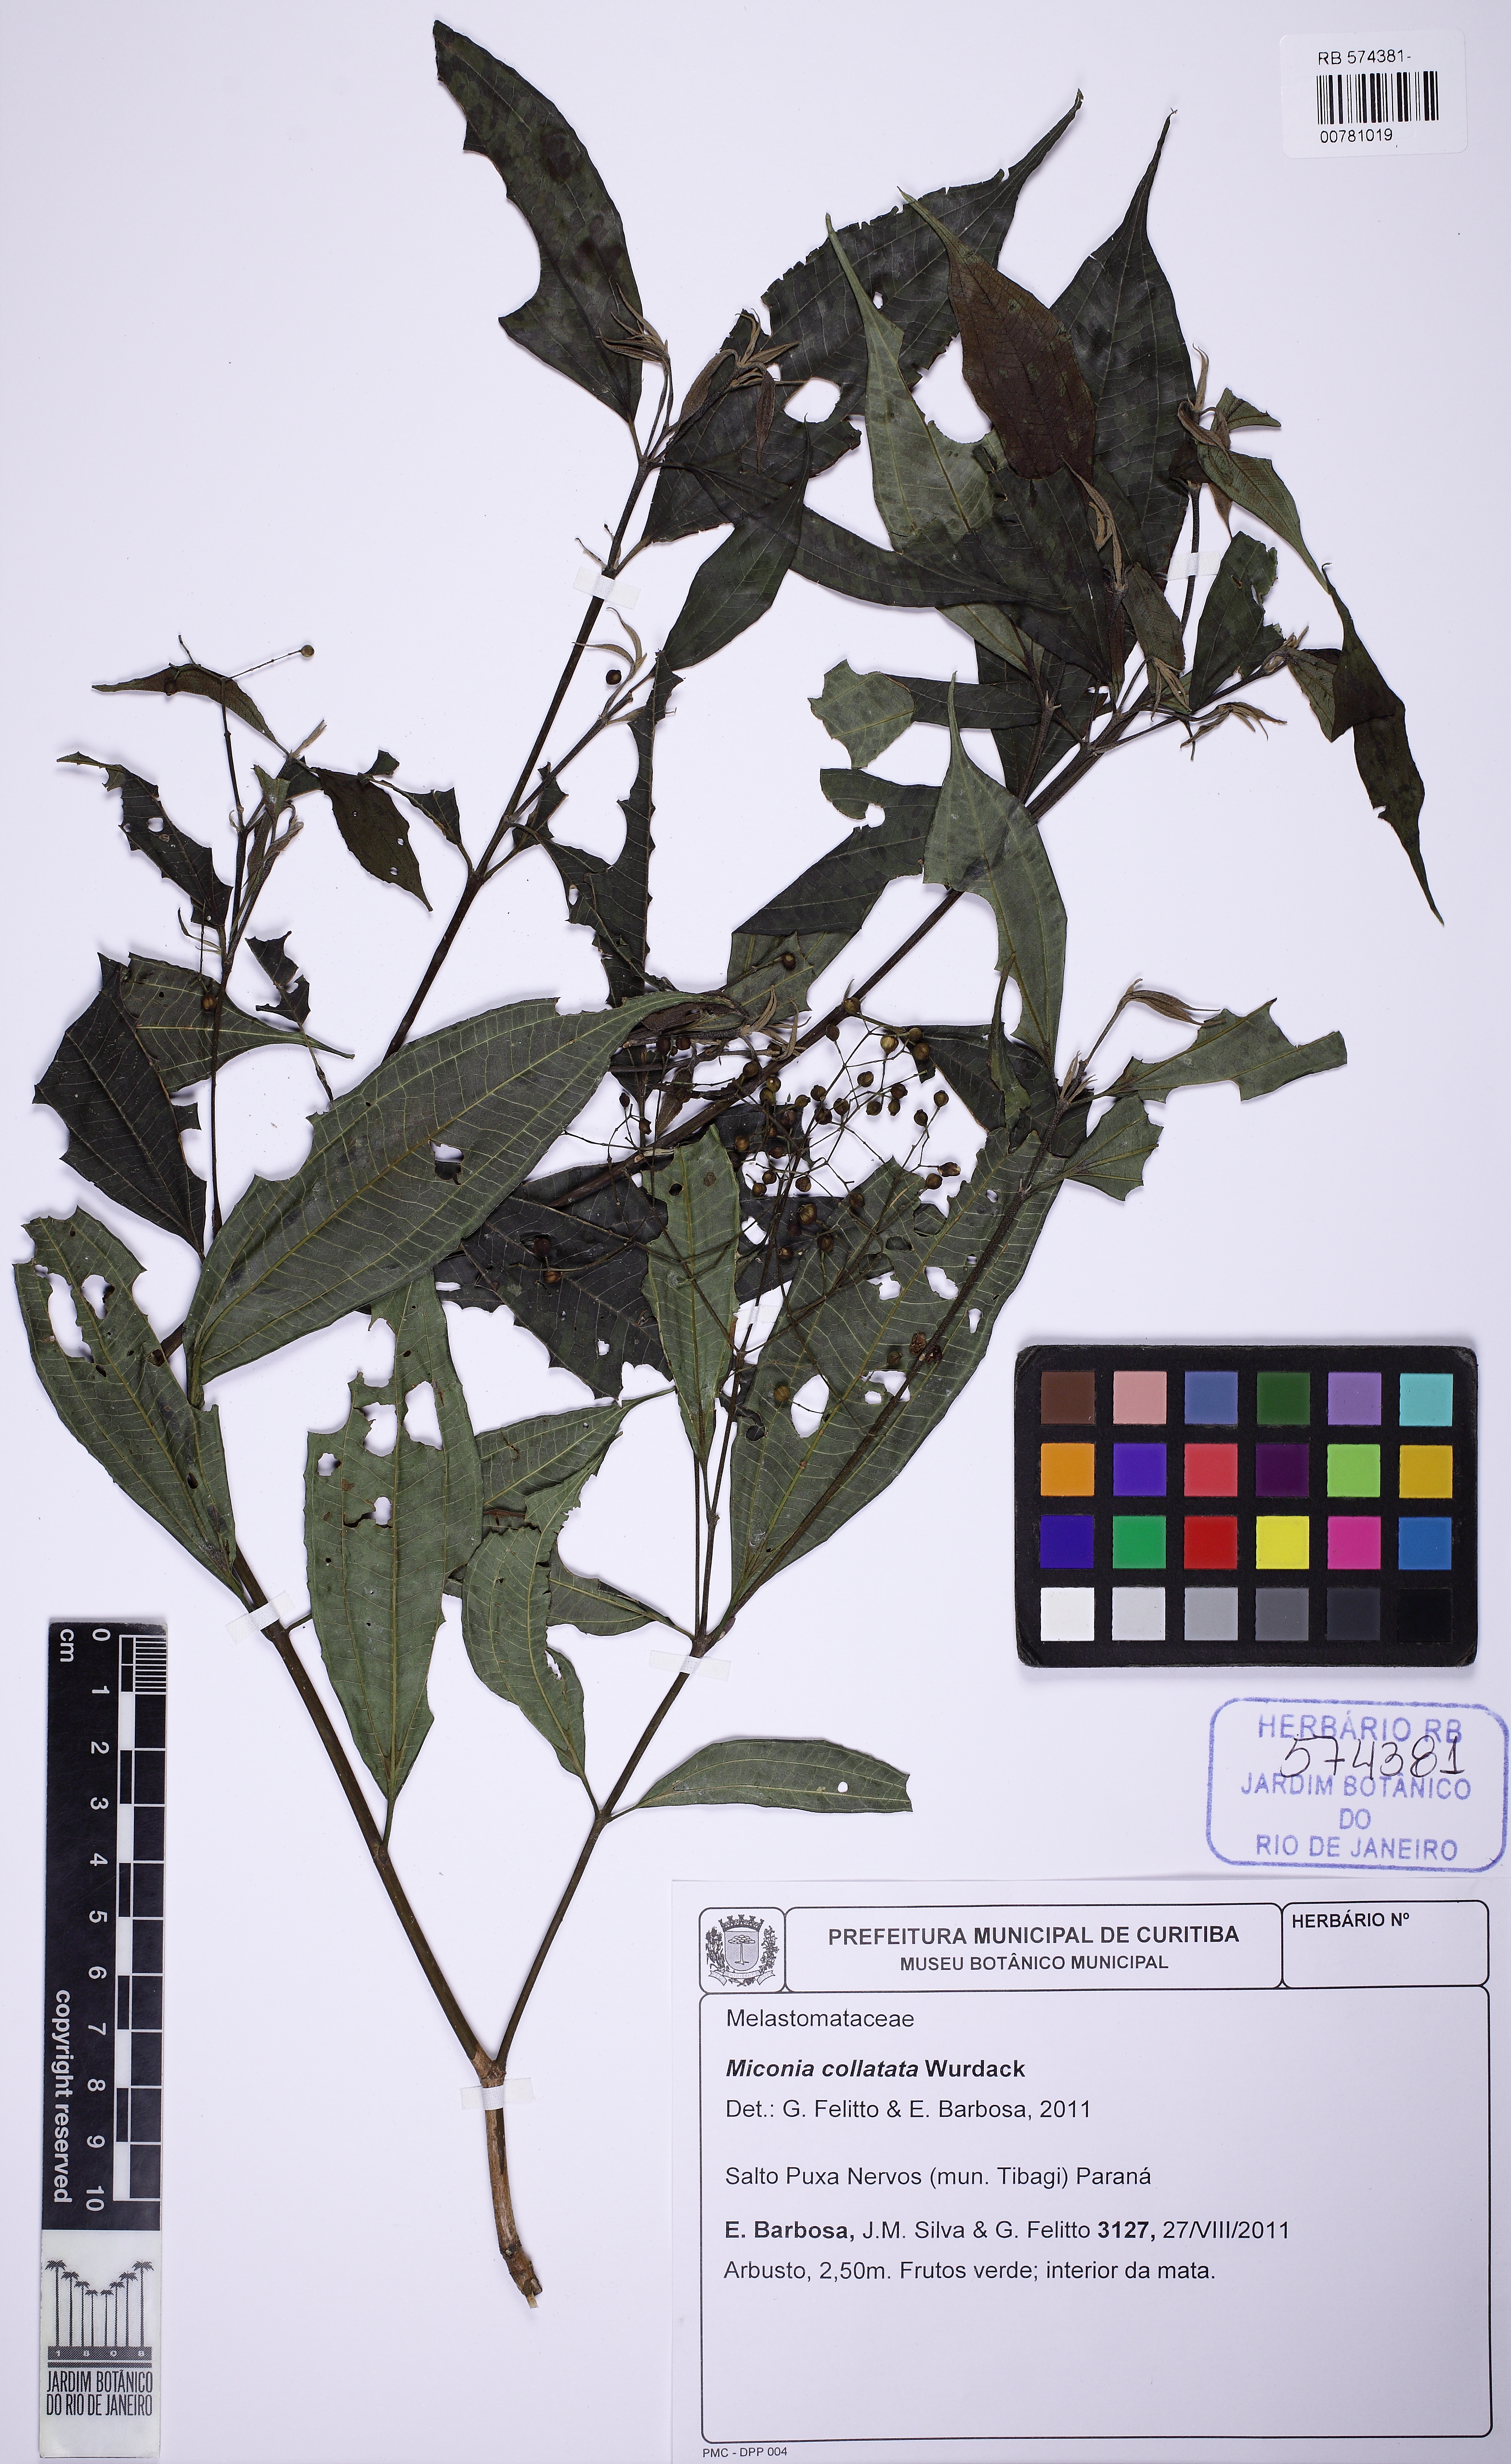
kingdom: Plantae
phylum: Tracheophyta
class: Magnoliopsida
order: Myrtales
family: Melastomataceae
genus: Miconia
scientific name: Miconia collatata
